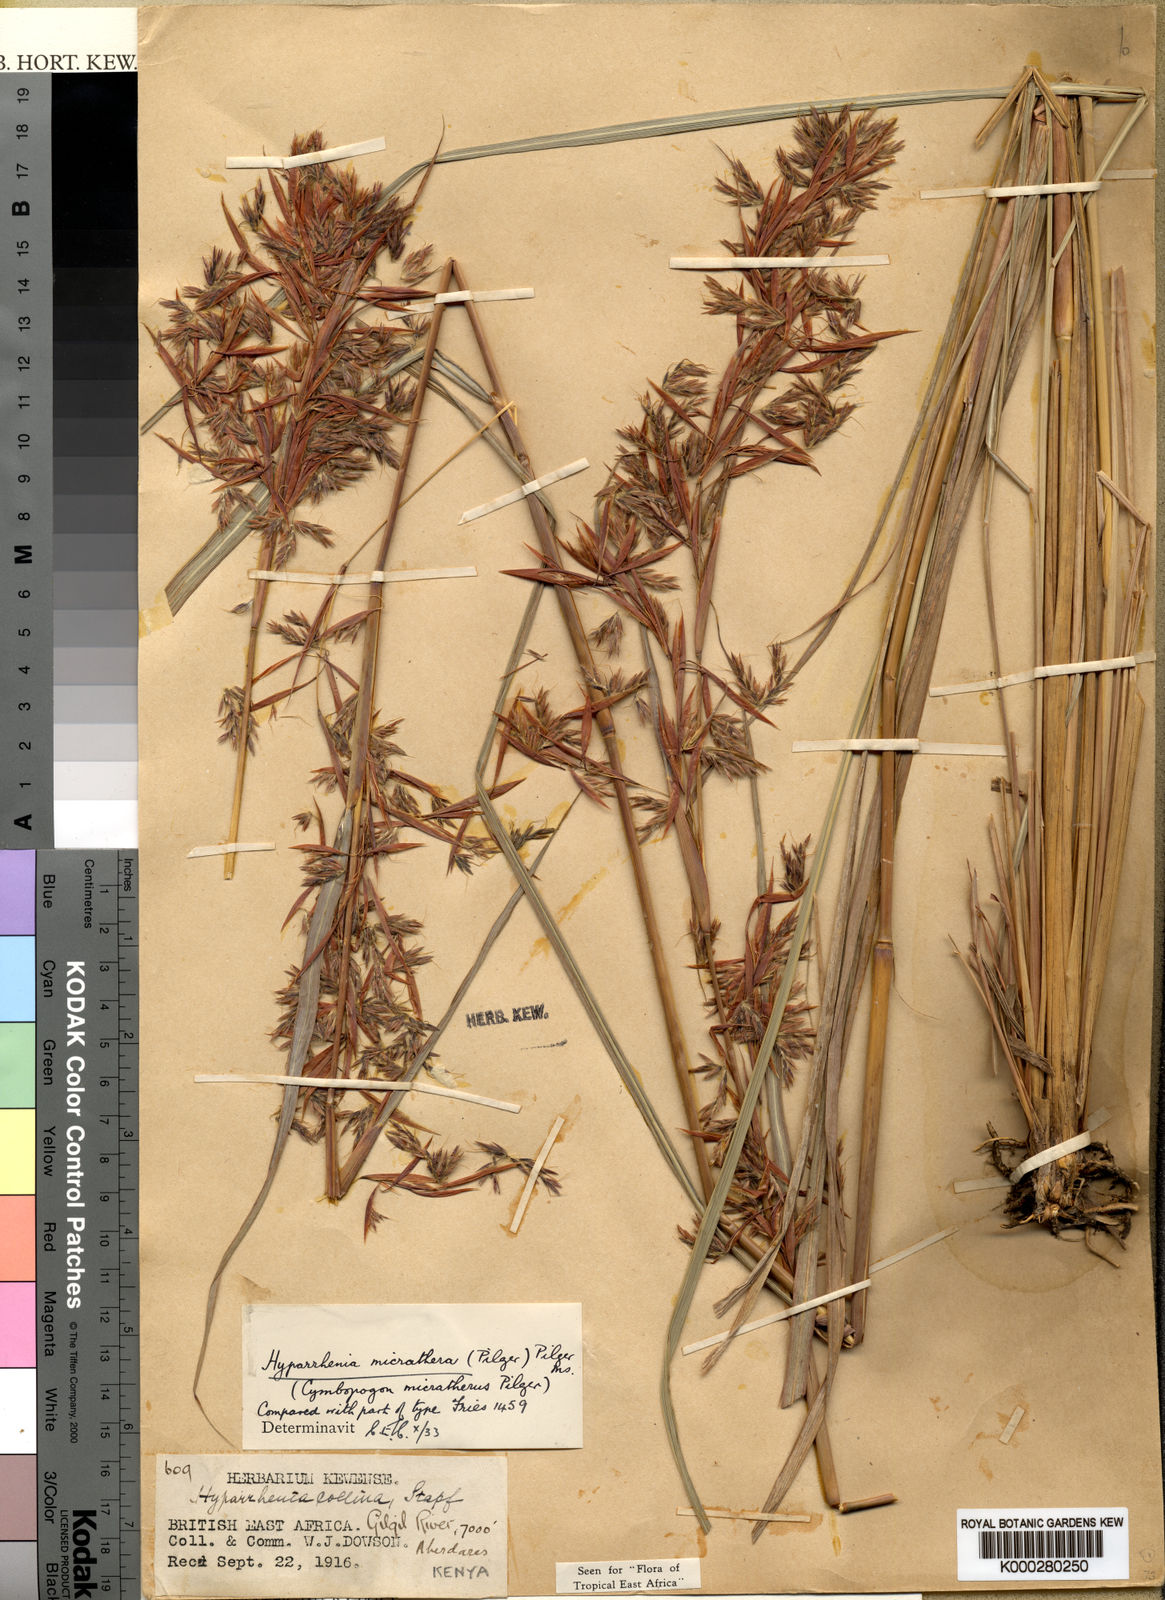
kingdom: Plantae
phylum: Tracheophyta
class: Liliopsida
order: Poales
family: Poaceae
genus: Hyparrhenia
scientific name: Hyparrhenia dregeana
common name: Silky thatching grass
